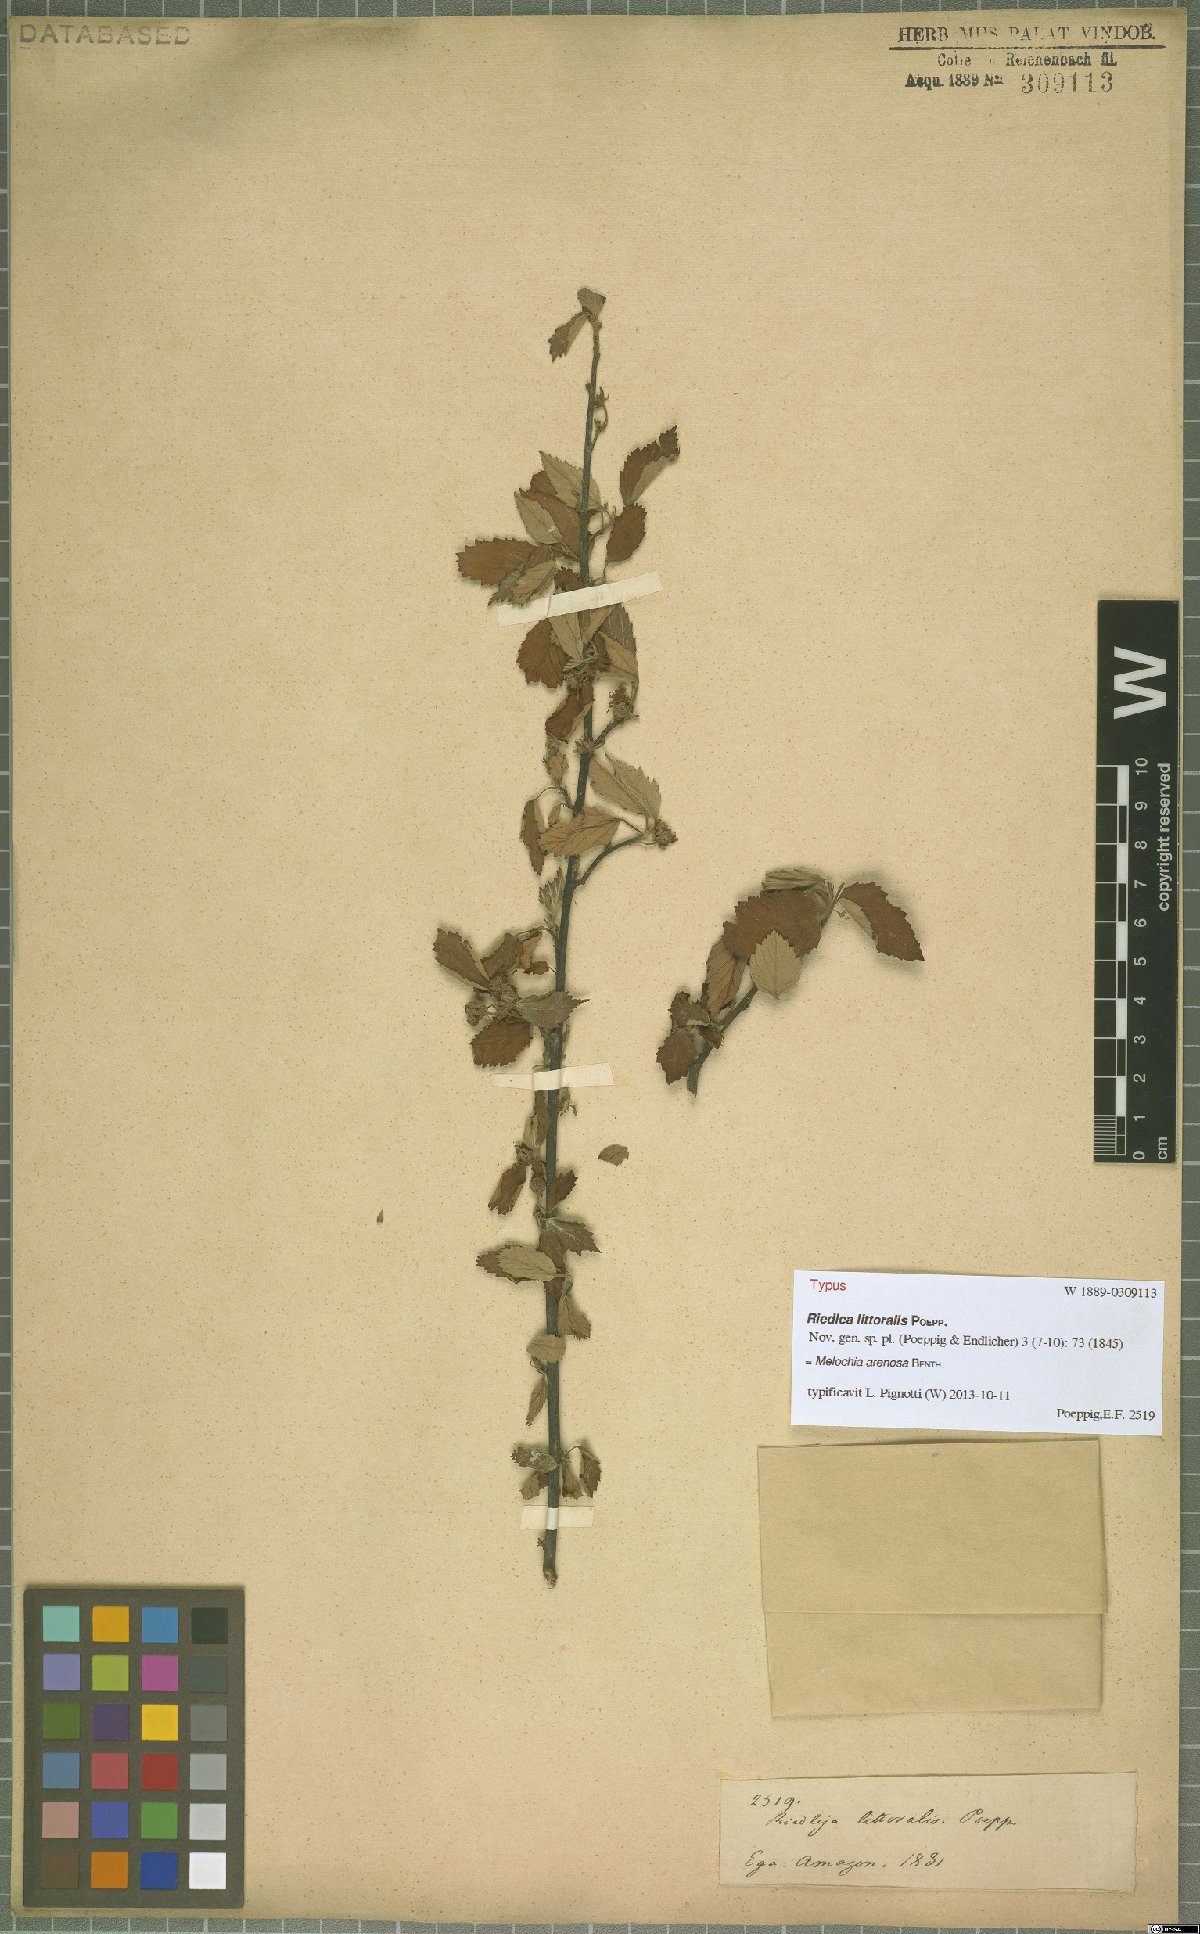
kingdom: Plantae
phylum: Tracheophyta
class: Magnoliopsida
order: Malvales
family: Malvaceae
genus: Melochia
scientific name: Melochia arenosa
